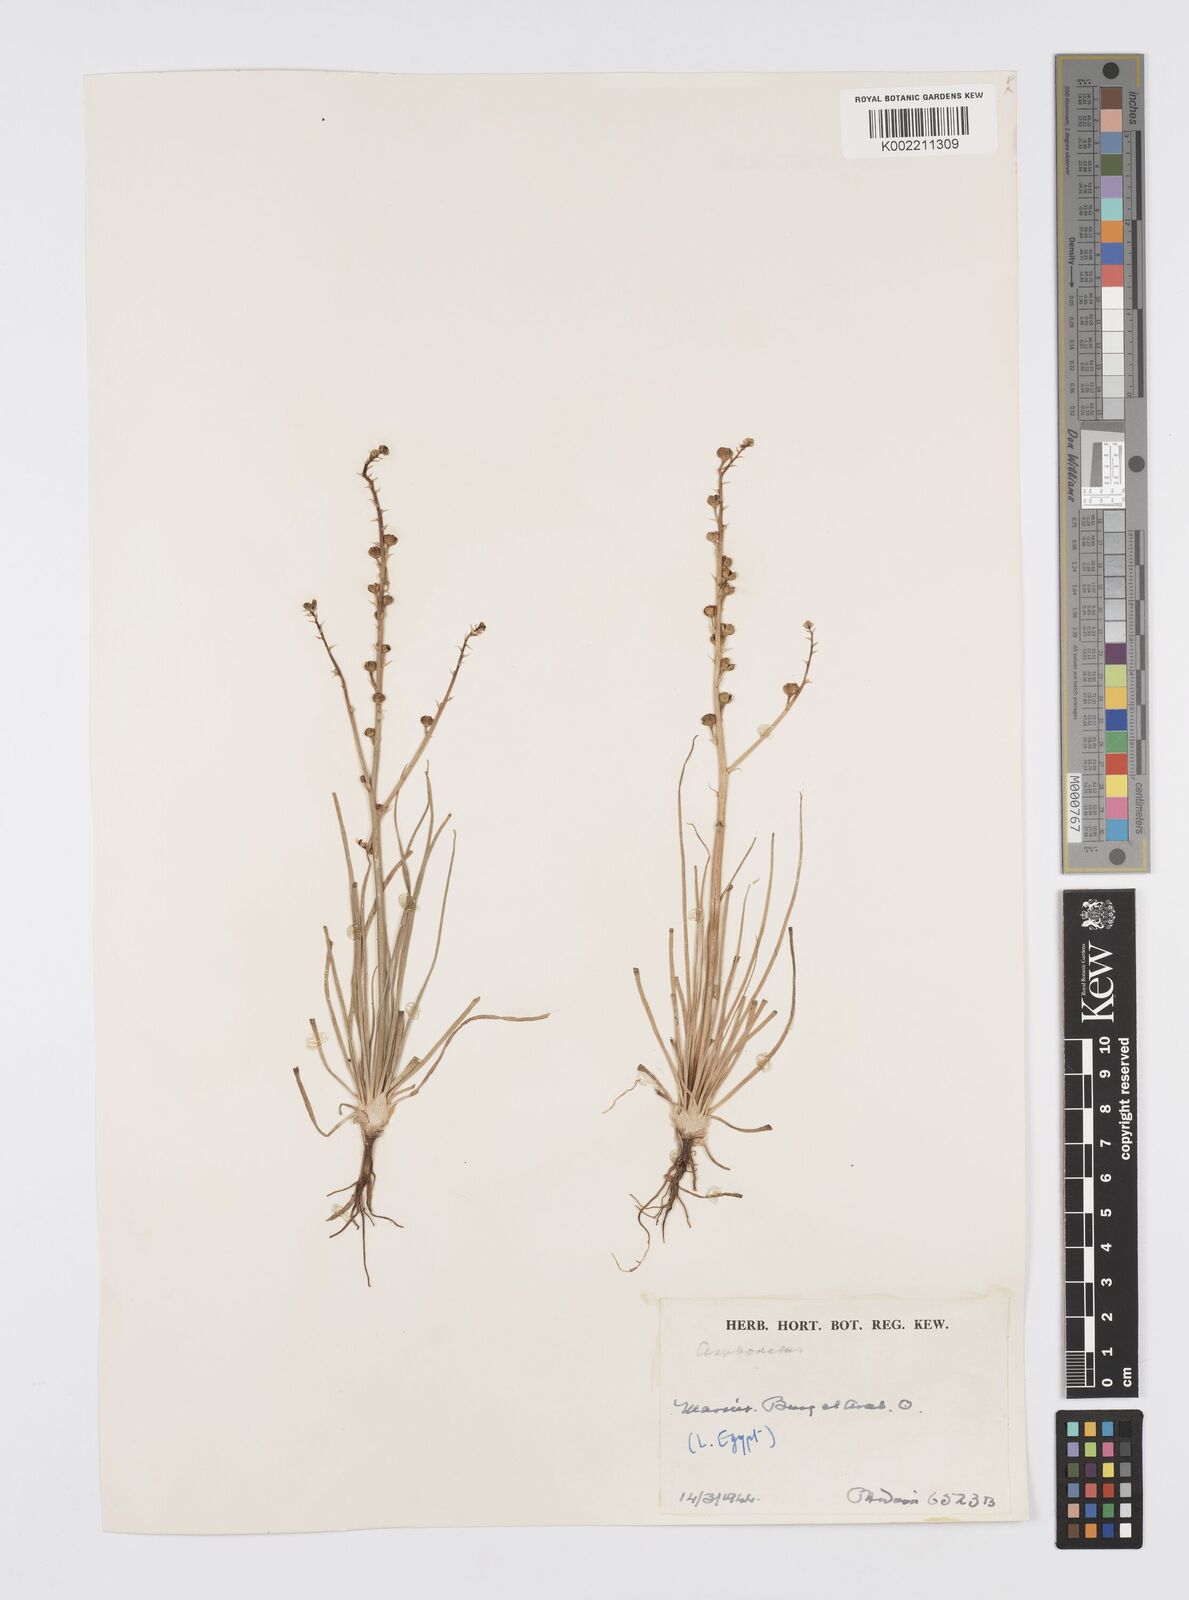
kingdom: Plantae
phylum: Tracheophyta
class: Liliopsida
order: Asparagales
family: Asphodelaceae
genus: Asphodeline
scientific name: Asphodeline tenuior
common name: Thin asphodeline
